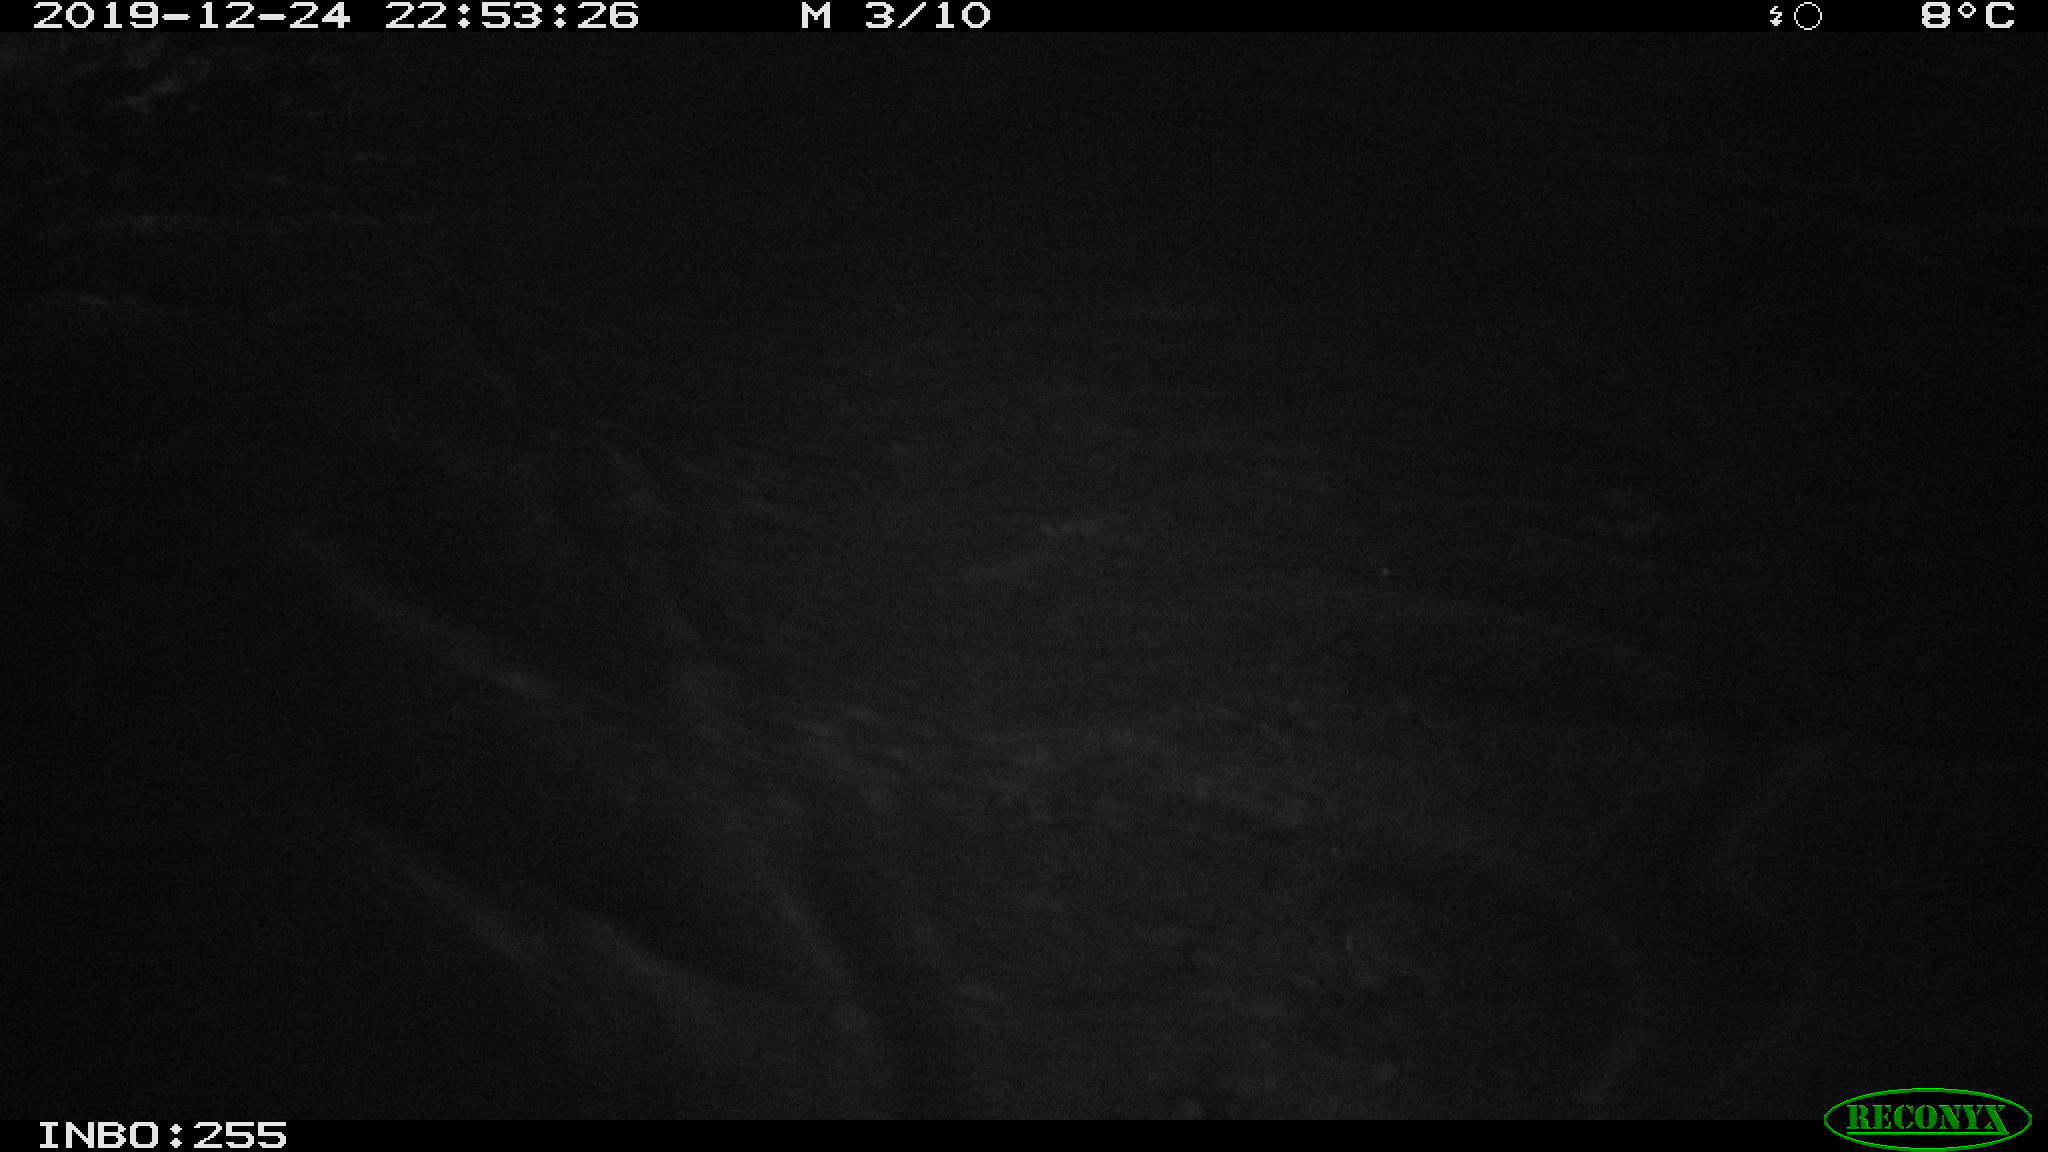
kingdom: Animalia
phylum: Chordata
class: Mammalia
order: Rodentia
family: Cricetidae
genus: Ondatra
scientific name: Ondatra zibethicus
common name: Muskrat
